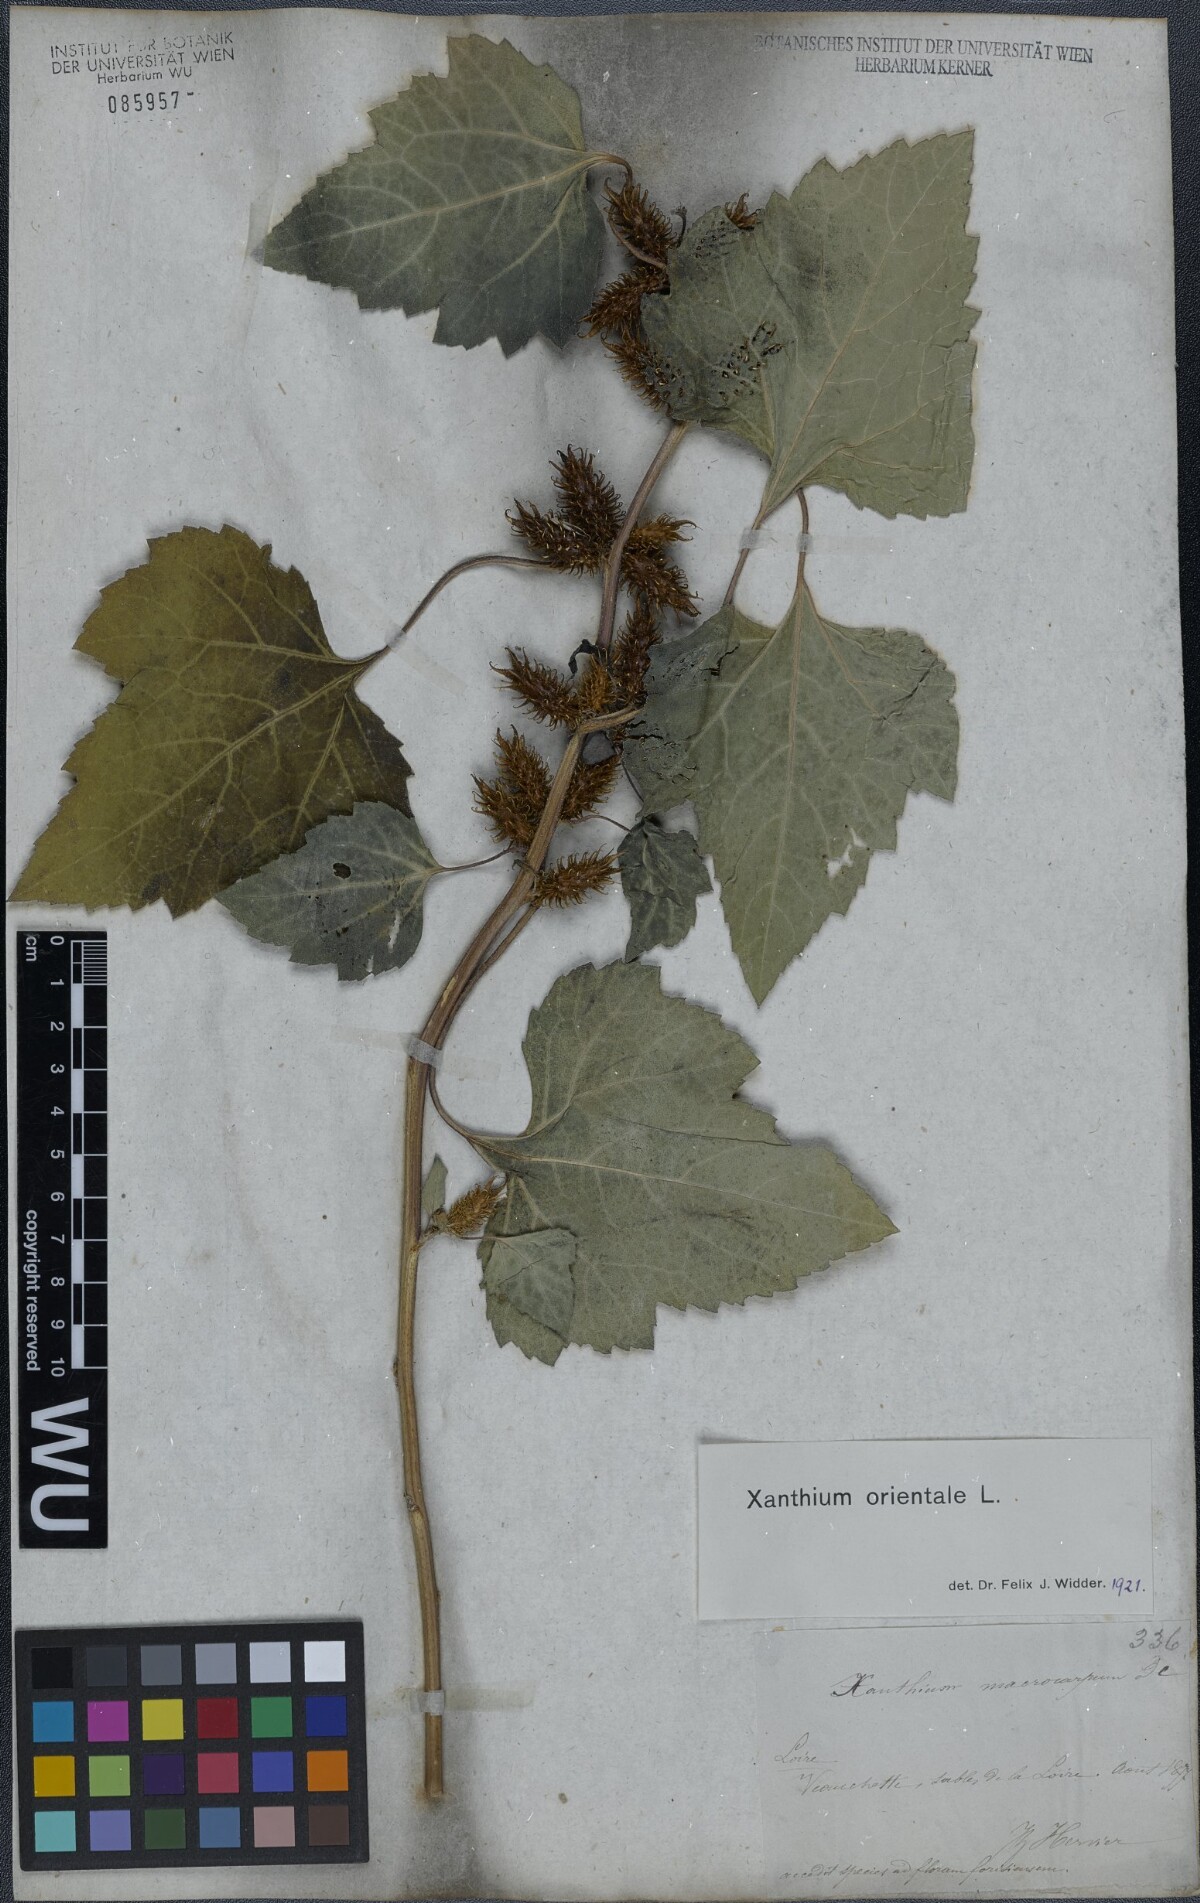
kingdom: Plantae
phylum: Tracheophyta
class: Magnoliopsida
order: Asterales
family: Asteraceae
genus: Xanthium
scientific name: Xanthium orientale
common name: Californian burr
